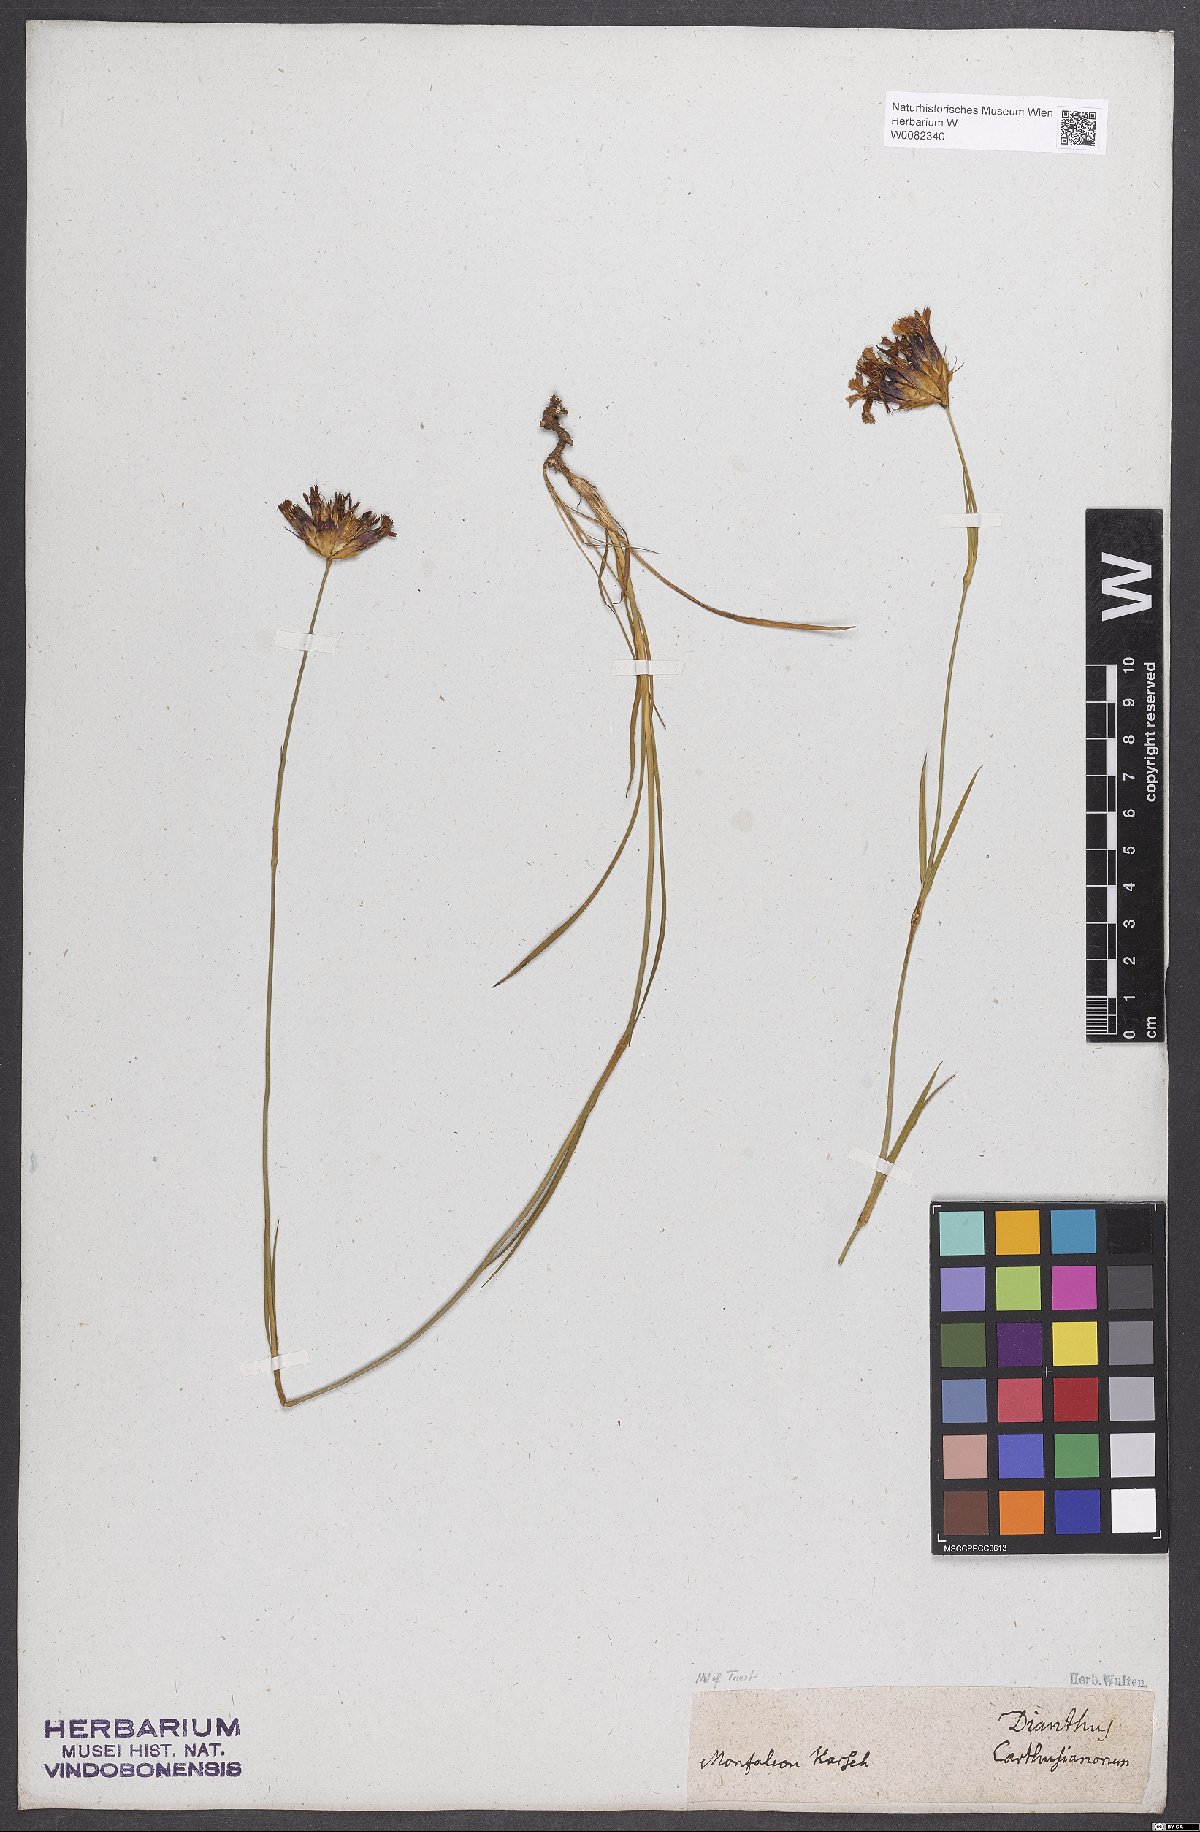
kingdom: Plantae
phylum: Tracheophyta
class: Magnoliopsida
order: Caryophyllales
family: Caryophyllaceae
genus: Dianthus
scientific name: Dianthus carthusianorum
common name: Carthusian pink
